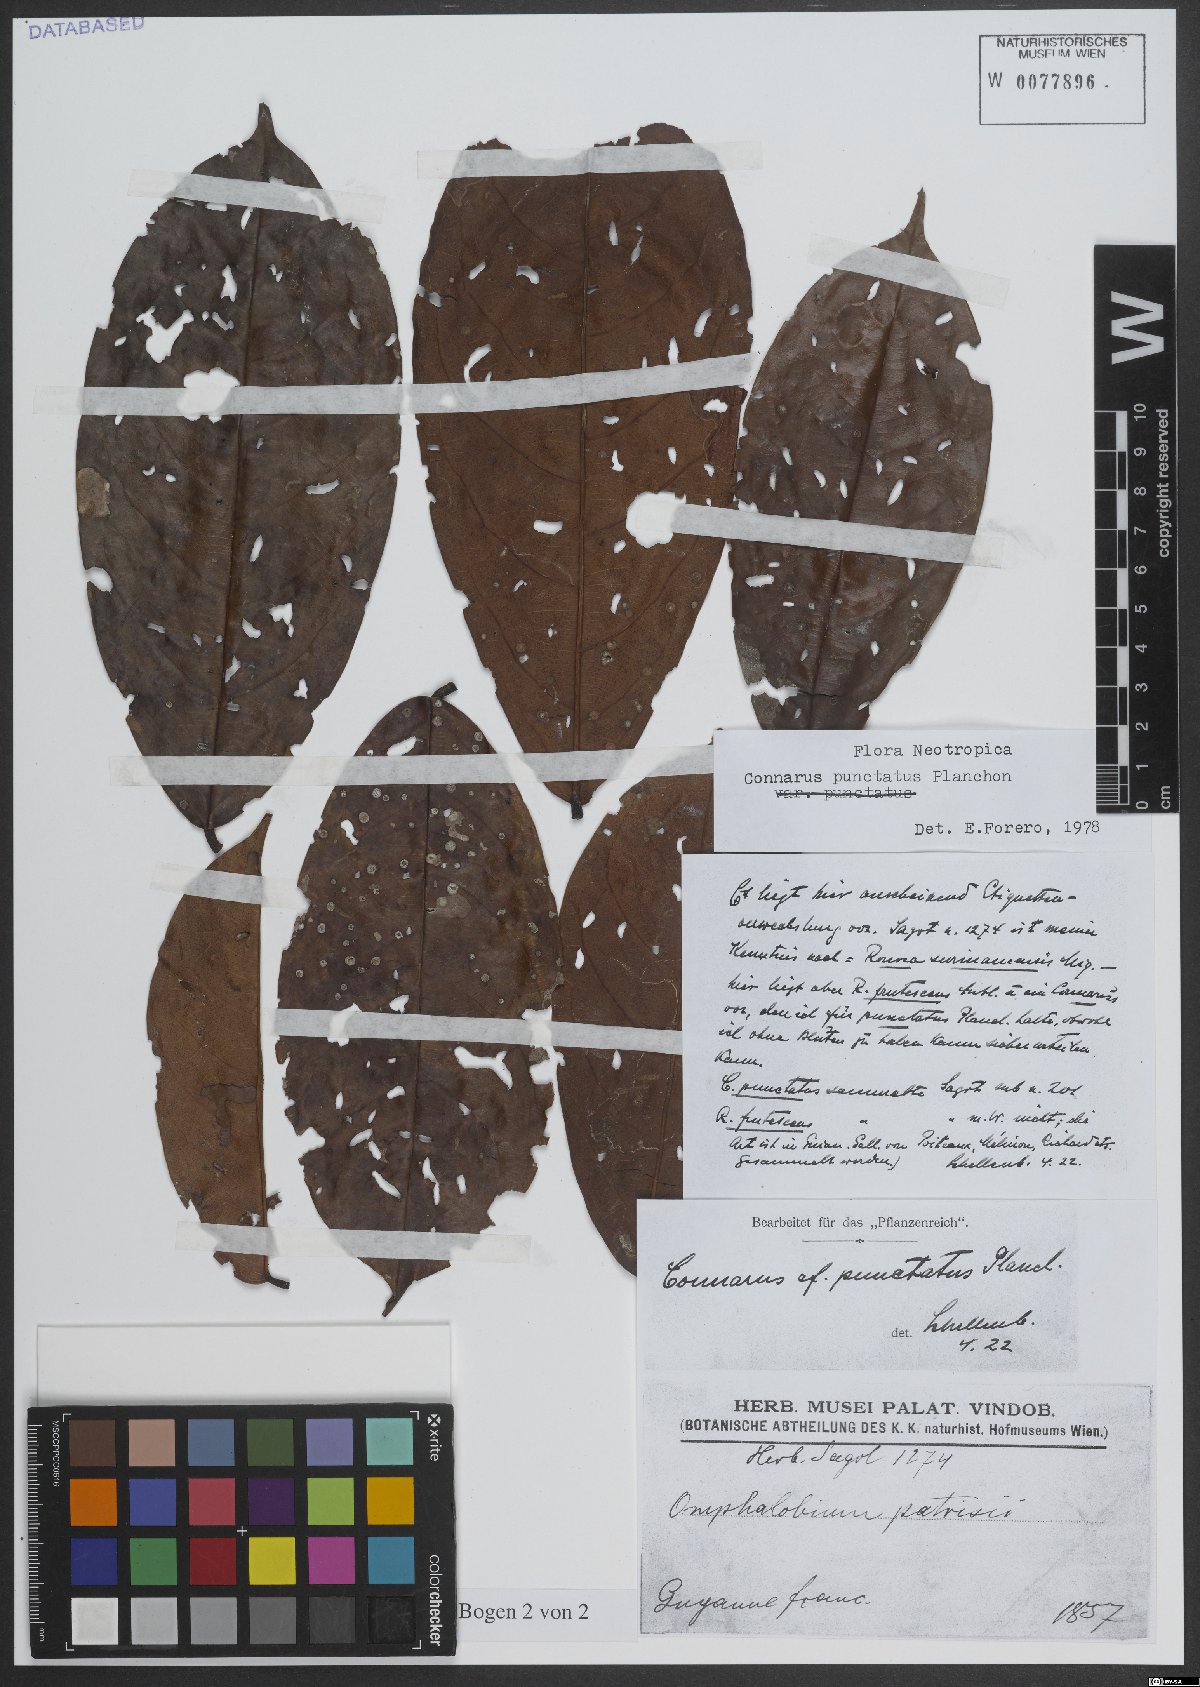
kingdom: Plantae
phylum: Tracheophyta
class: Magnoliopsida
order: Oxalidales
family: Connaraceae
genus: Connarus
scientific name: Connarus punctatus
